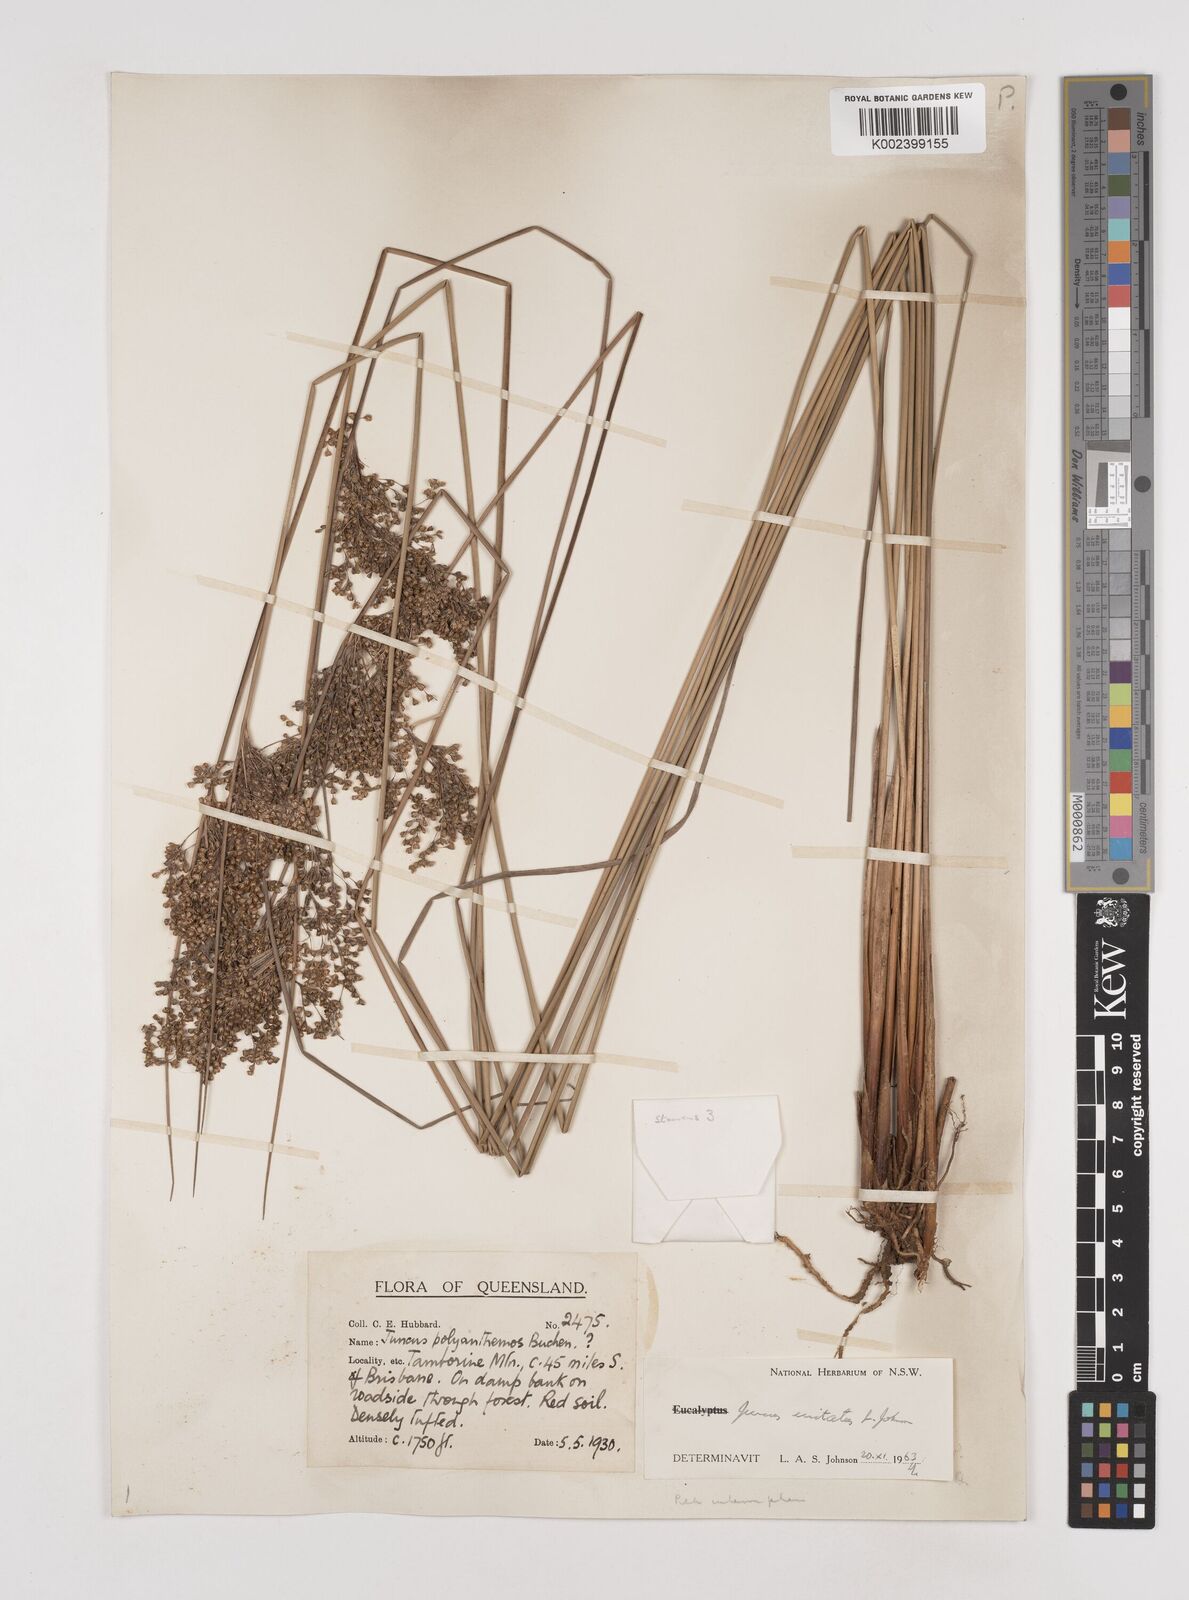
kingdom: Plantae
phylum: Tracheophyta
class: Liliopsida
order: Poales
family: Juncaceae
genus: Juncus
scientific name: Juncus usitatus
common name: Rush
